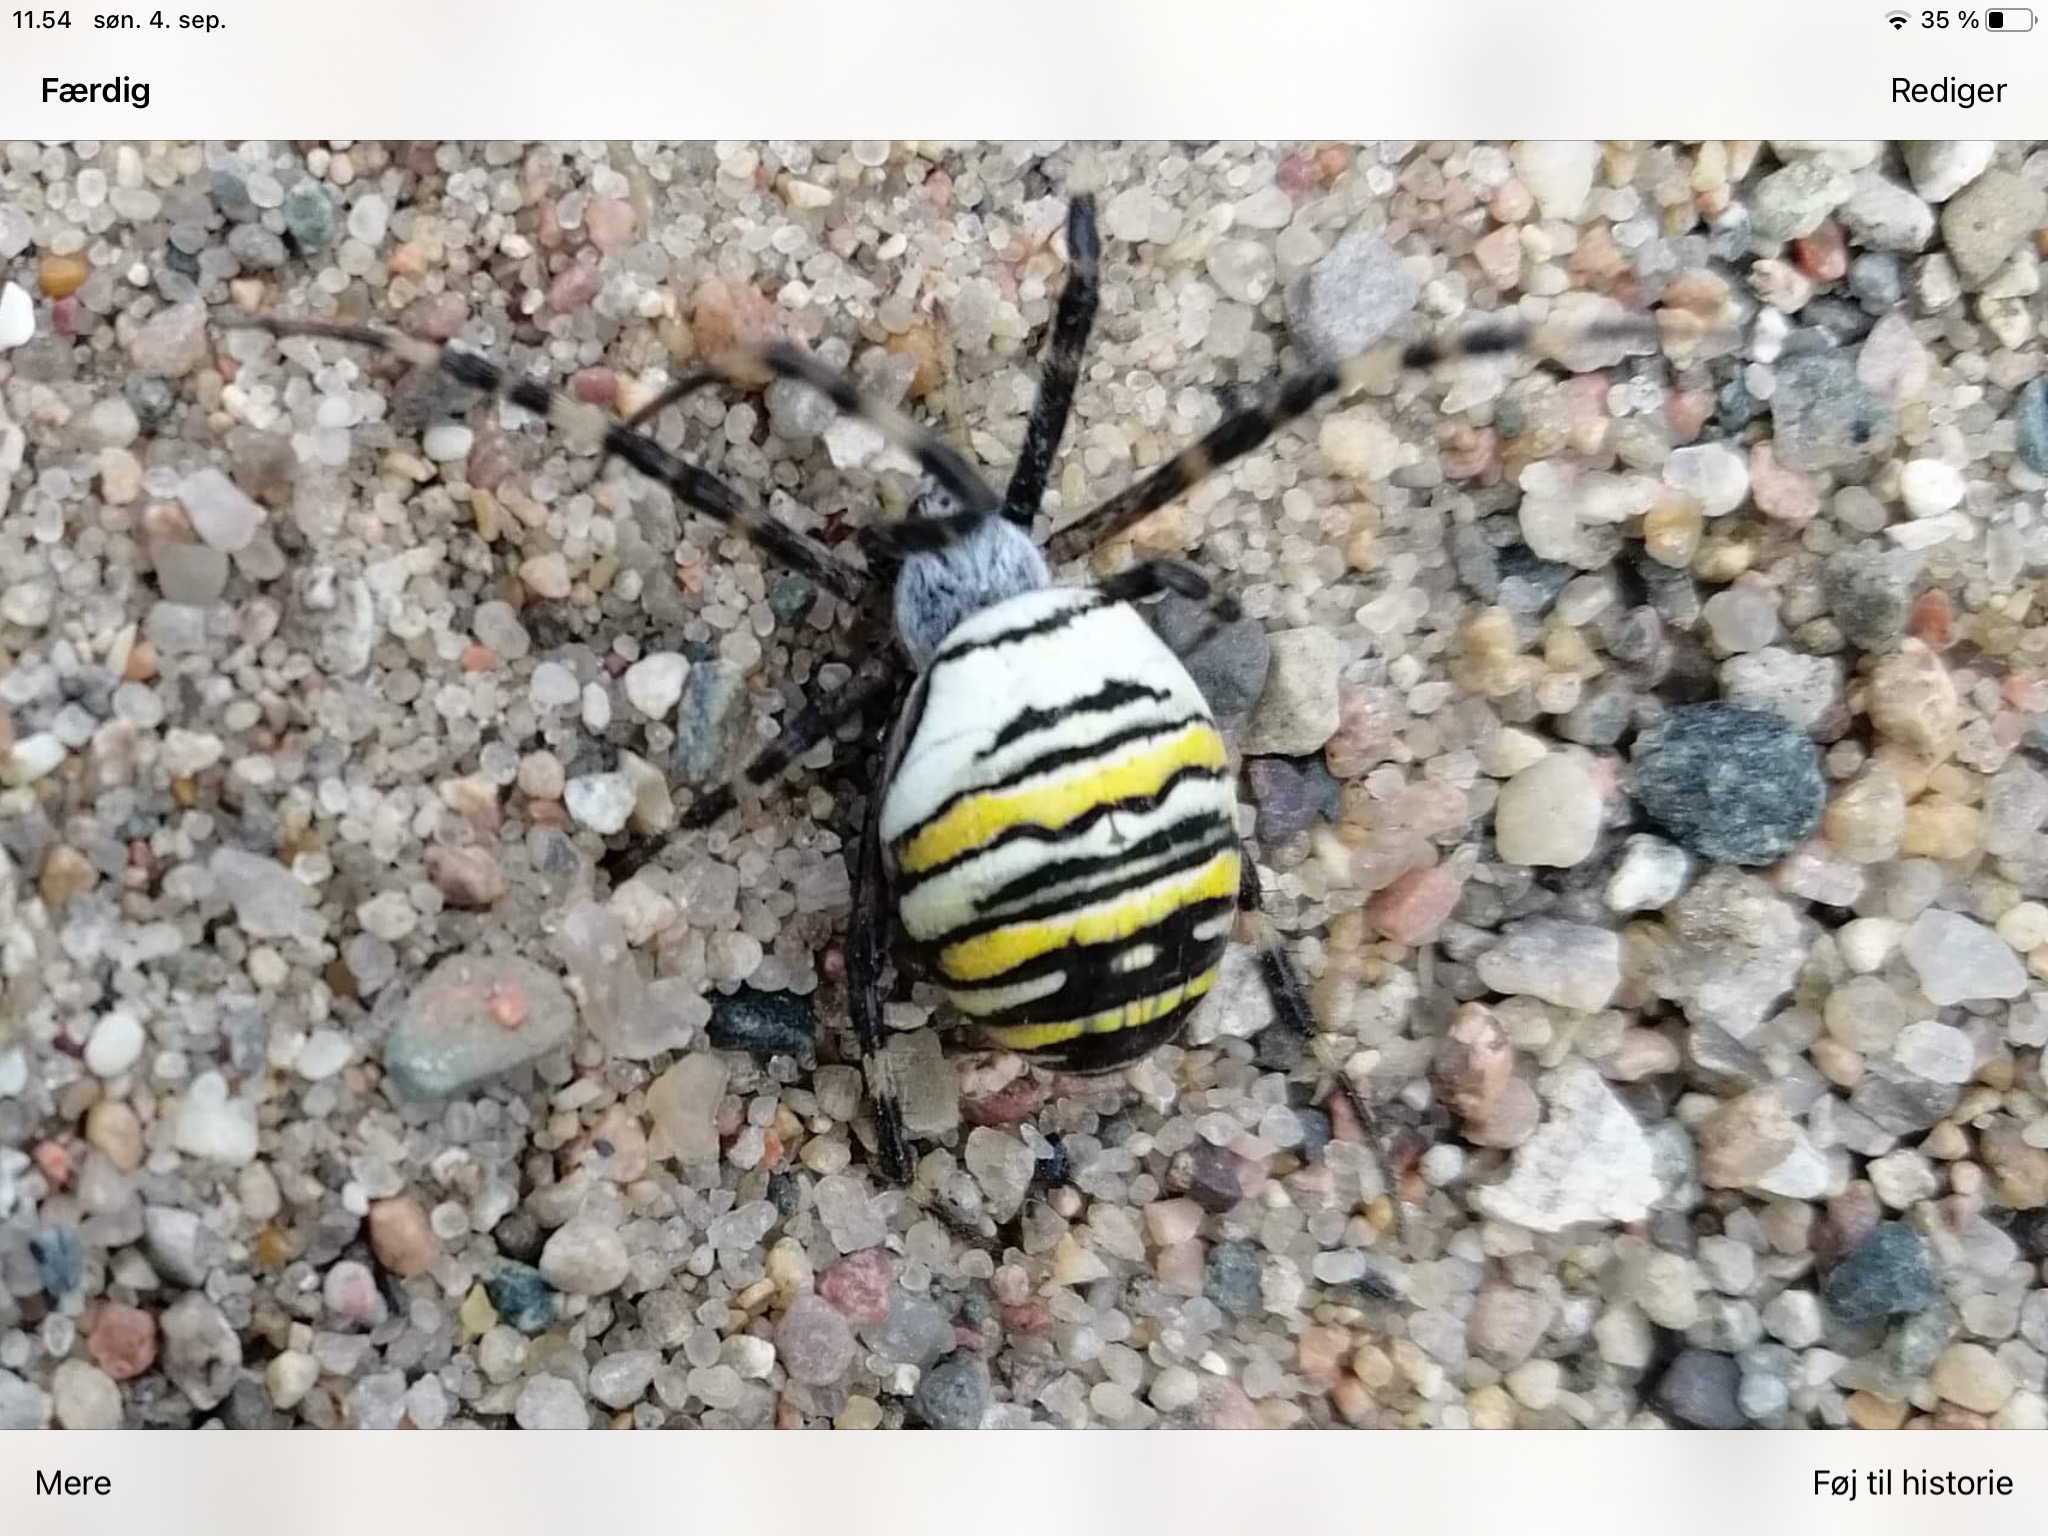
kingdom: Animalia
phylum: Arthropoda
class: Arachnida
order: Araneae
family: Araneidae
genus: Argiope
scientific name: Argiope bruennichi
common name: Hvepseedderkop
